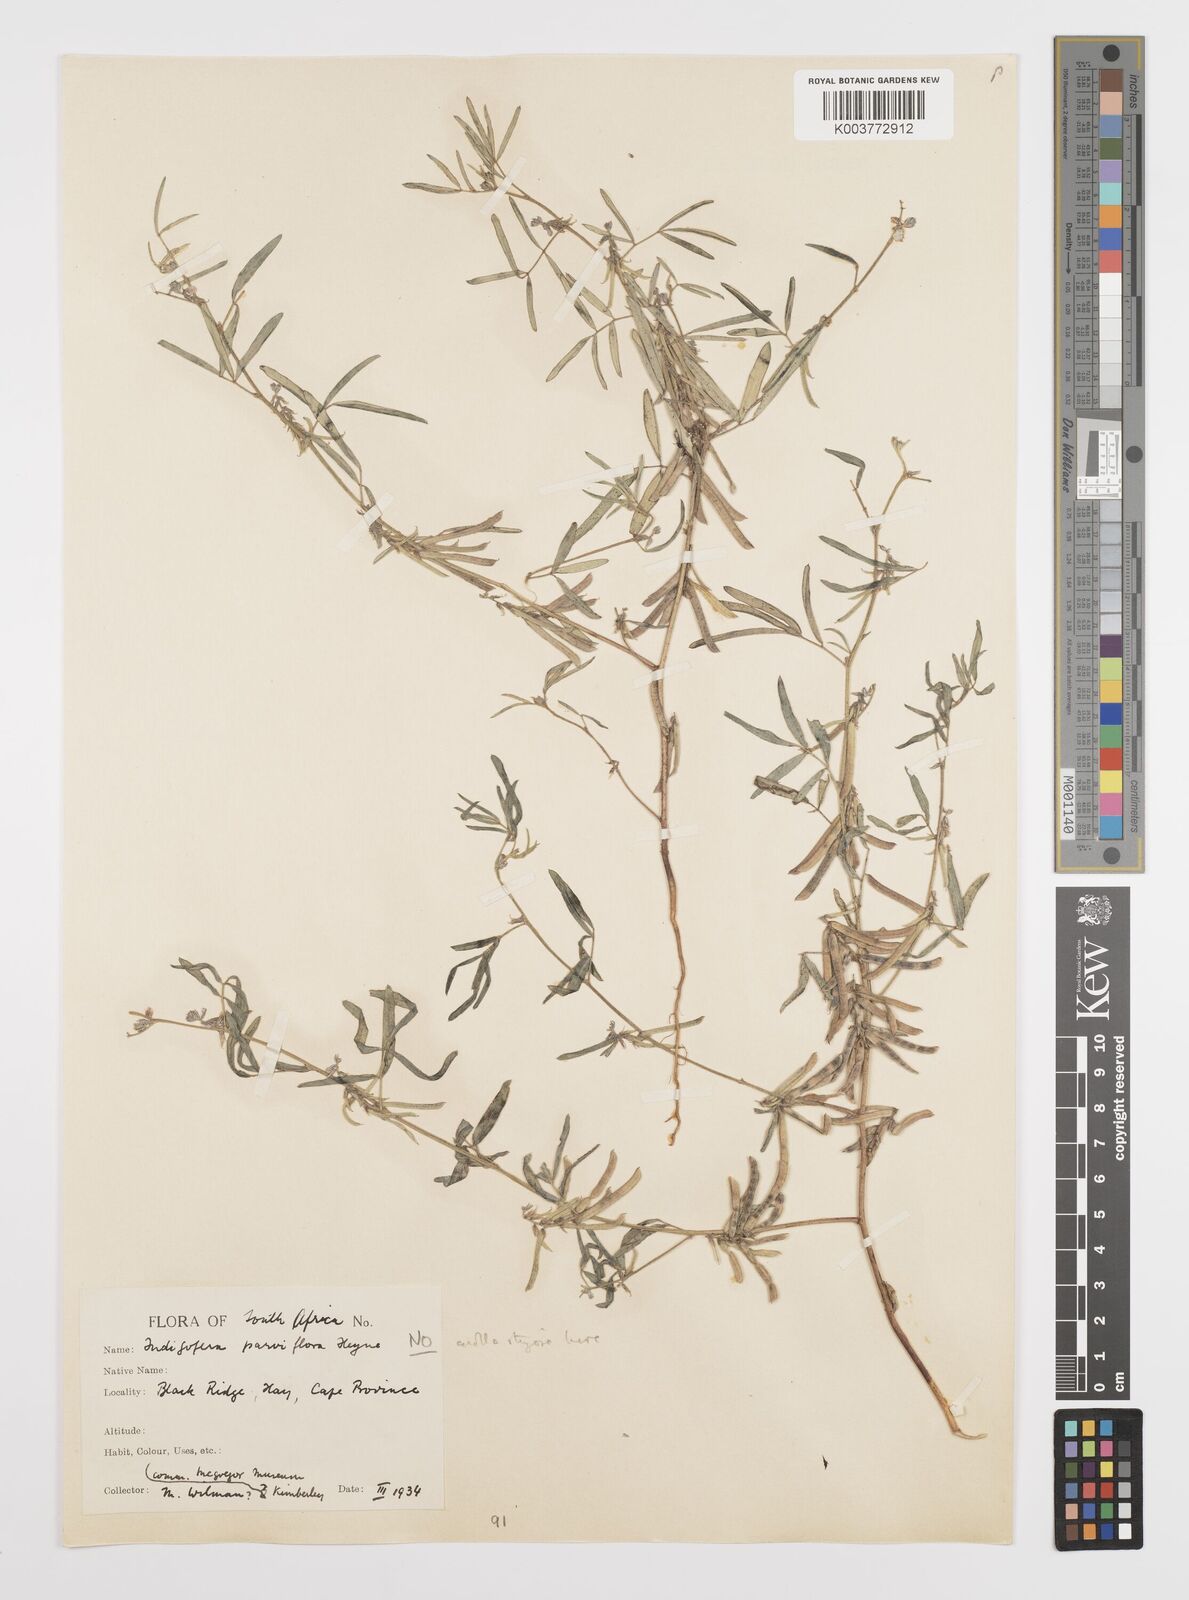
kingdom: Plantae
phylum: Tracheophyta
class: Magnoliopsida
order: Fabales
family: Fabaceae
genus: Indigofera
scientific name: Indigofera charlieriana
